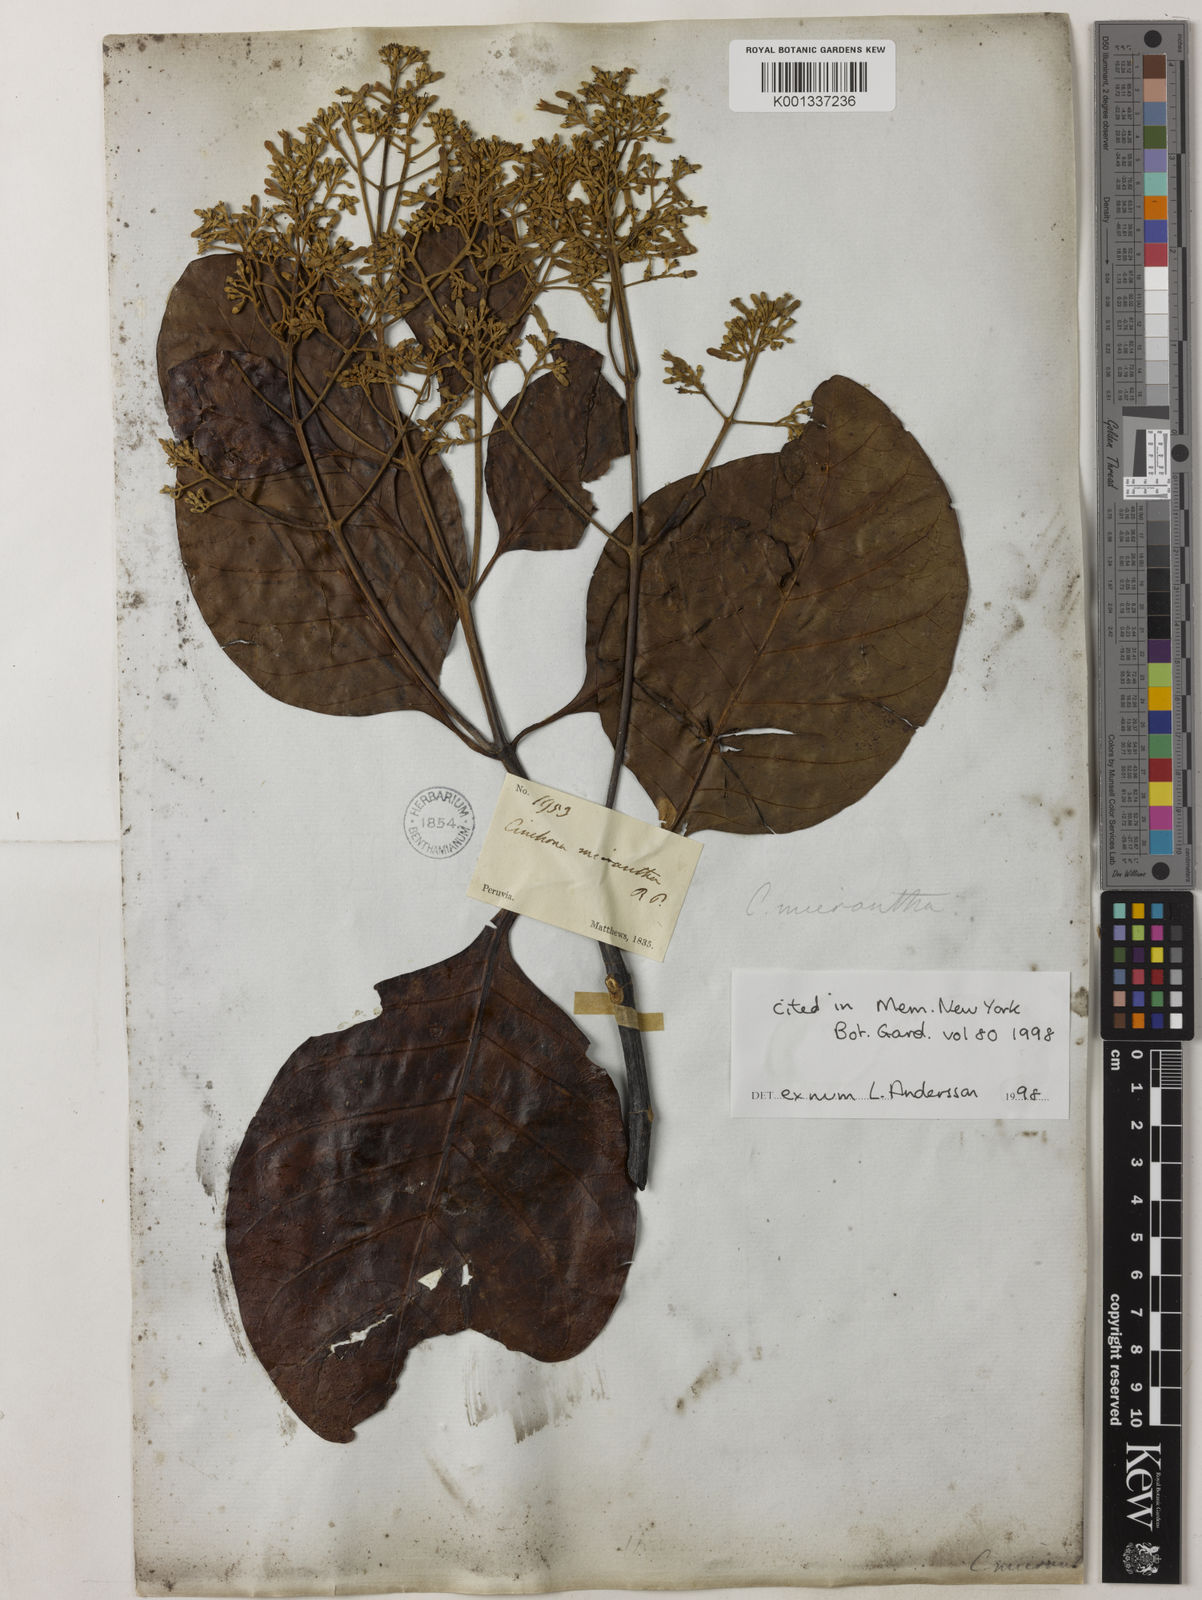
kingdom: Plantae
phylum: Tracheophyta
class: Magnoliopsida
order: Gentianales
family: Rubiaceae
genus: Cinchona
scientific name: Cinchona micrantha
